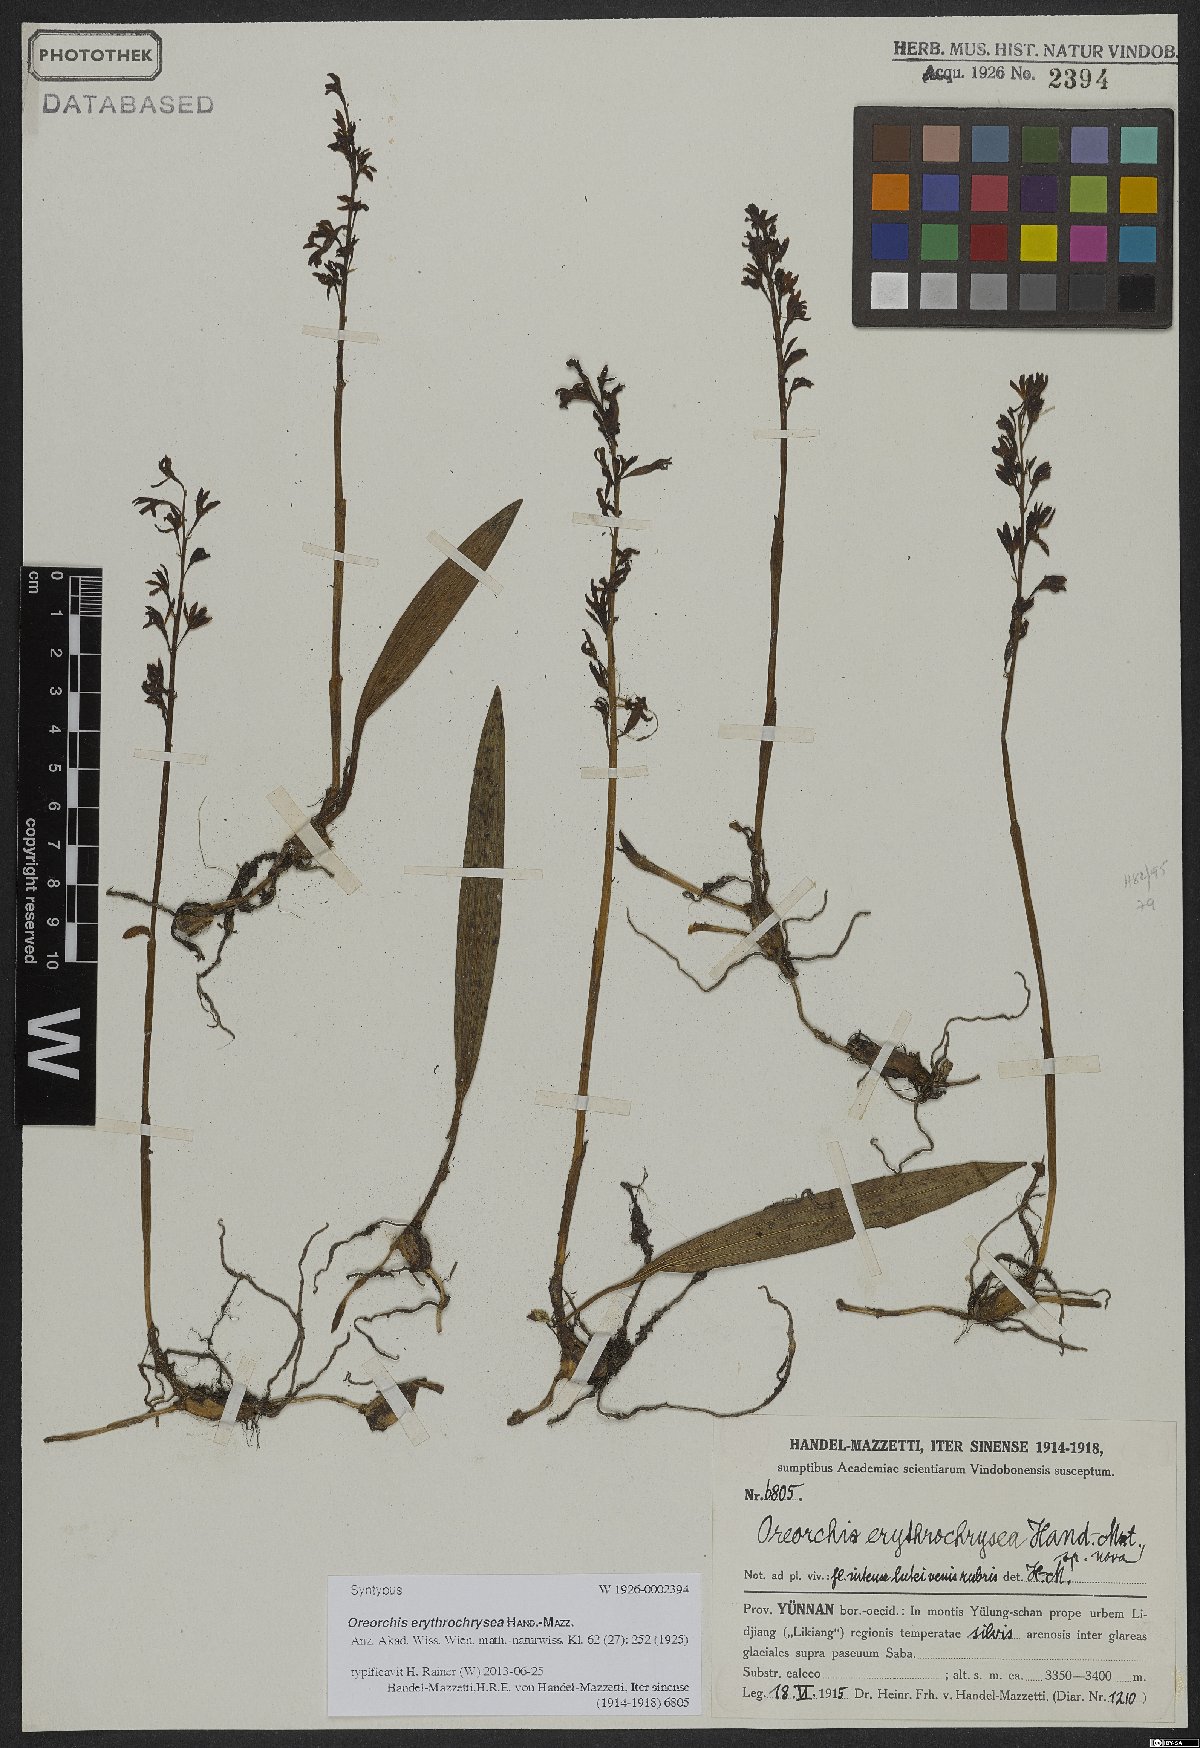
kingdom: Plantae
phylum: Tracheophyta
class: Liliopsida
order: Asparagales
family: Orchidaceae
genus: Oreorchis
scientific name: Oreorchis erythrochrysea
